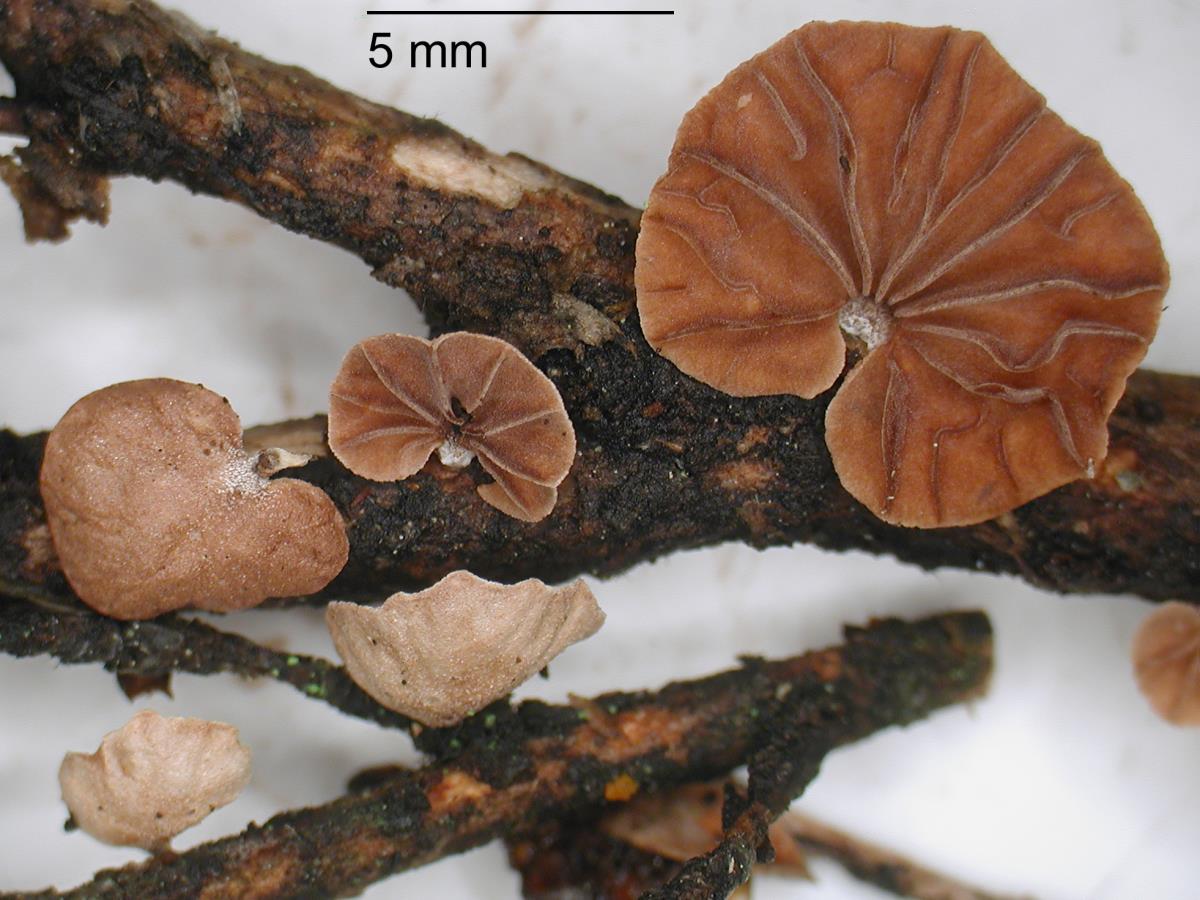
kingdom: Fungi
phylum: Basidiomycota
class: Agaricomycetes
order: Agaricales
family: Omphalotaceae
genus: Gymnopus
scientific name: Gymnopus subsupinus
